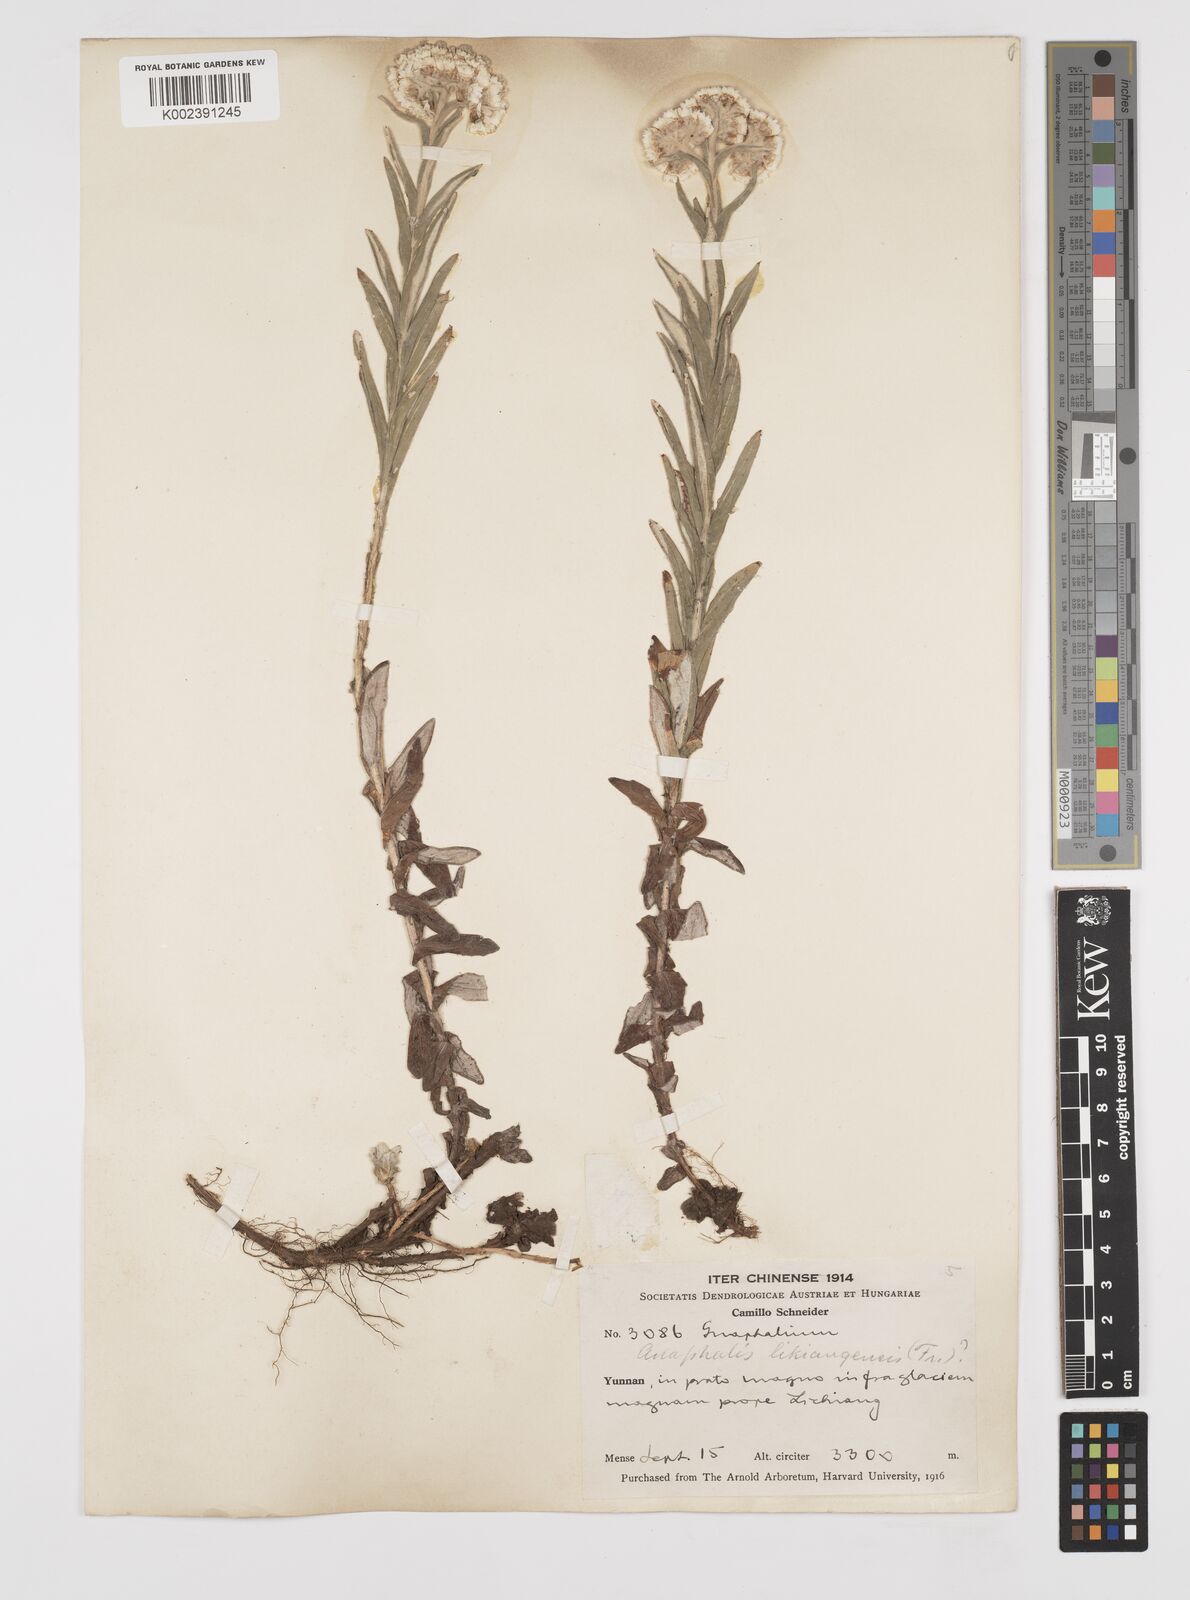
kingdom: Plantae
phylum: Tracheophyta
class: Magnoliopsida
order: Asterales
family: Asteraceae
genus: Anaphalis
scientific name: Anaphalis likiangensis
